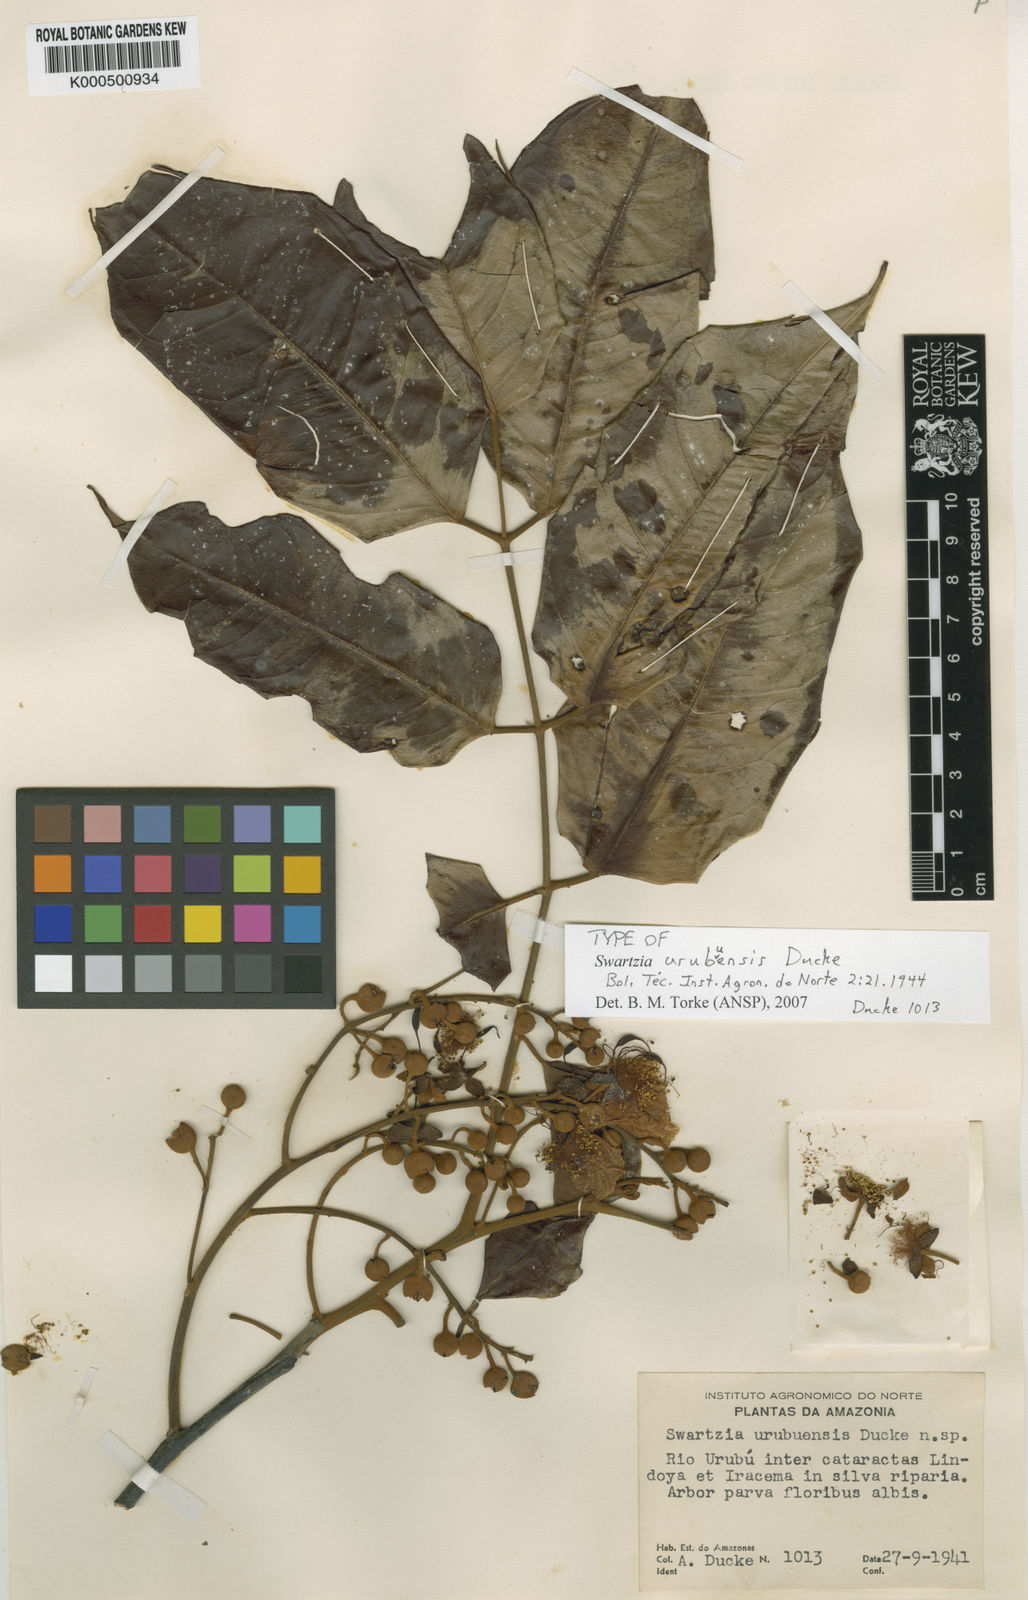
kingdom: Plantae
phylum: Tracheophyta
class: Magnoliopsida
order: Fabales
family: Fabaceae
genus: Swartzia
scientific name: Swartzia polyphylla
